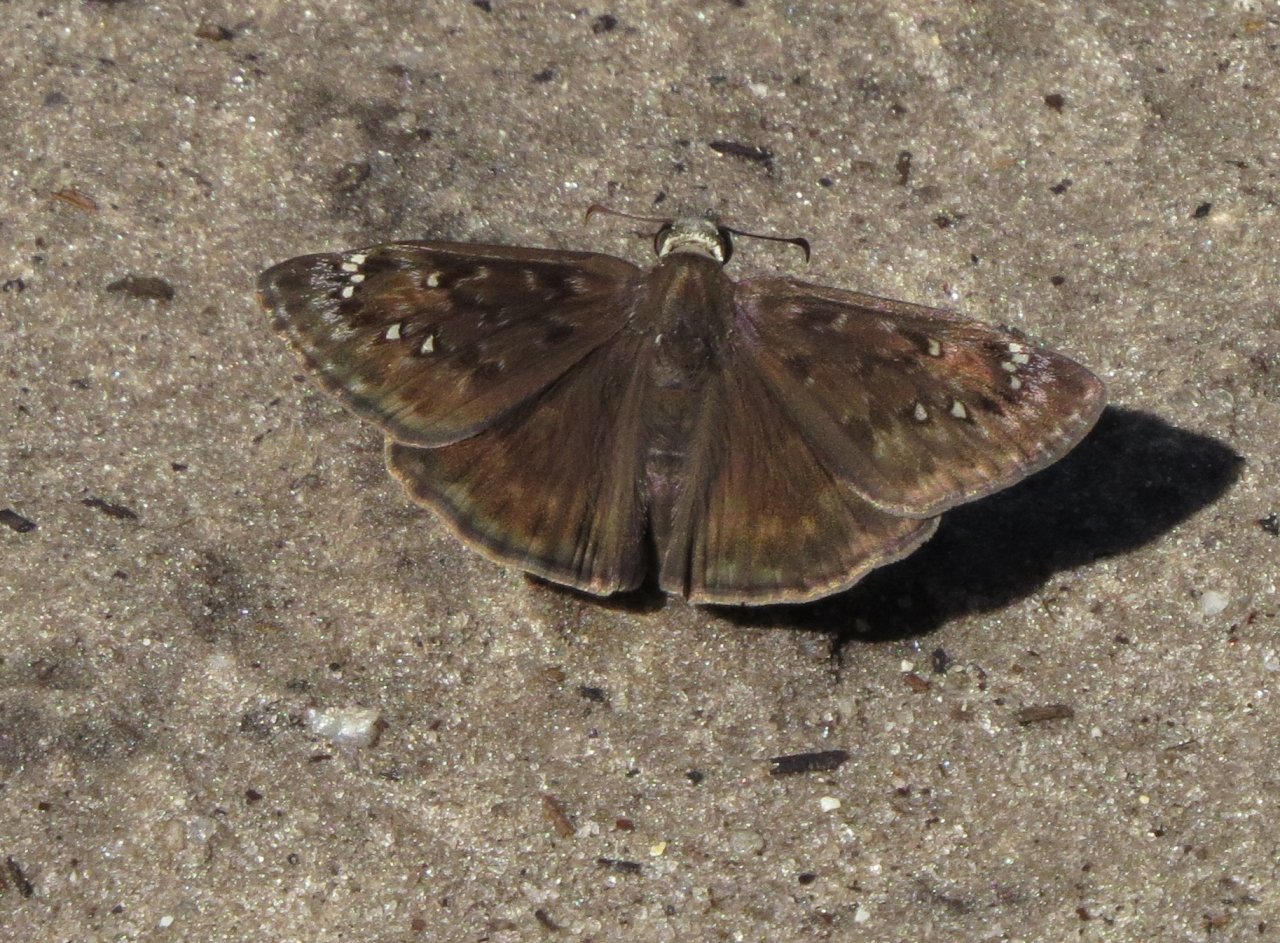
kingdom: Animalia
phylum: Arthropoda
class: Insecta
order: Lepidoptera
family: Hesperiidae
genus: Gesta
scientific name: Gesta
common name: Horace's Duskywing
